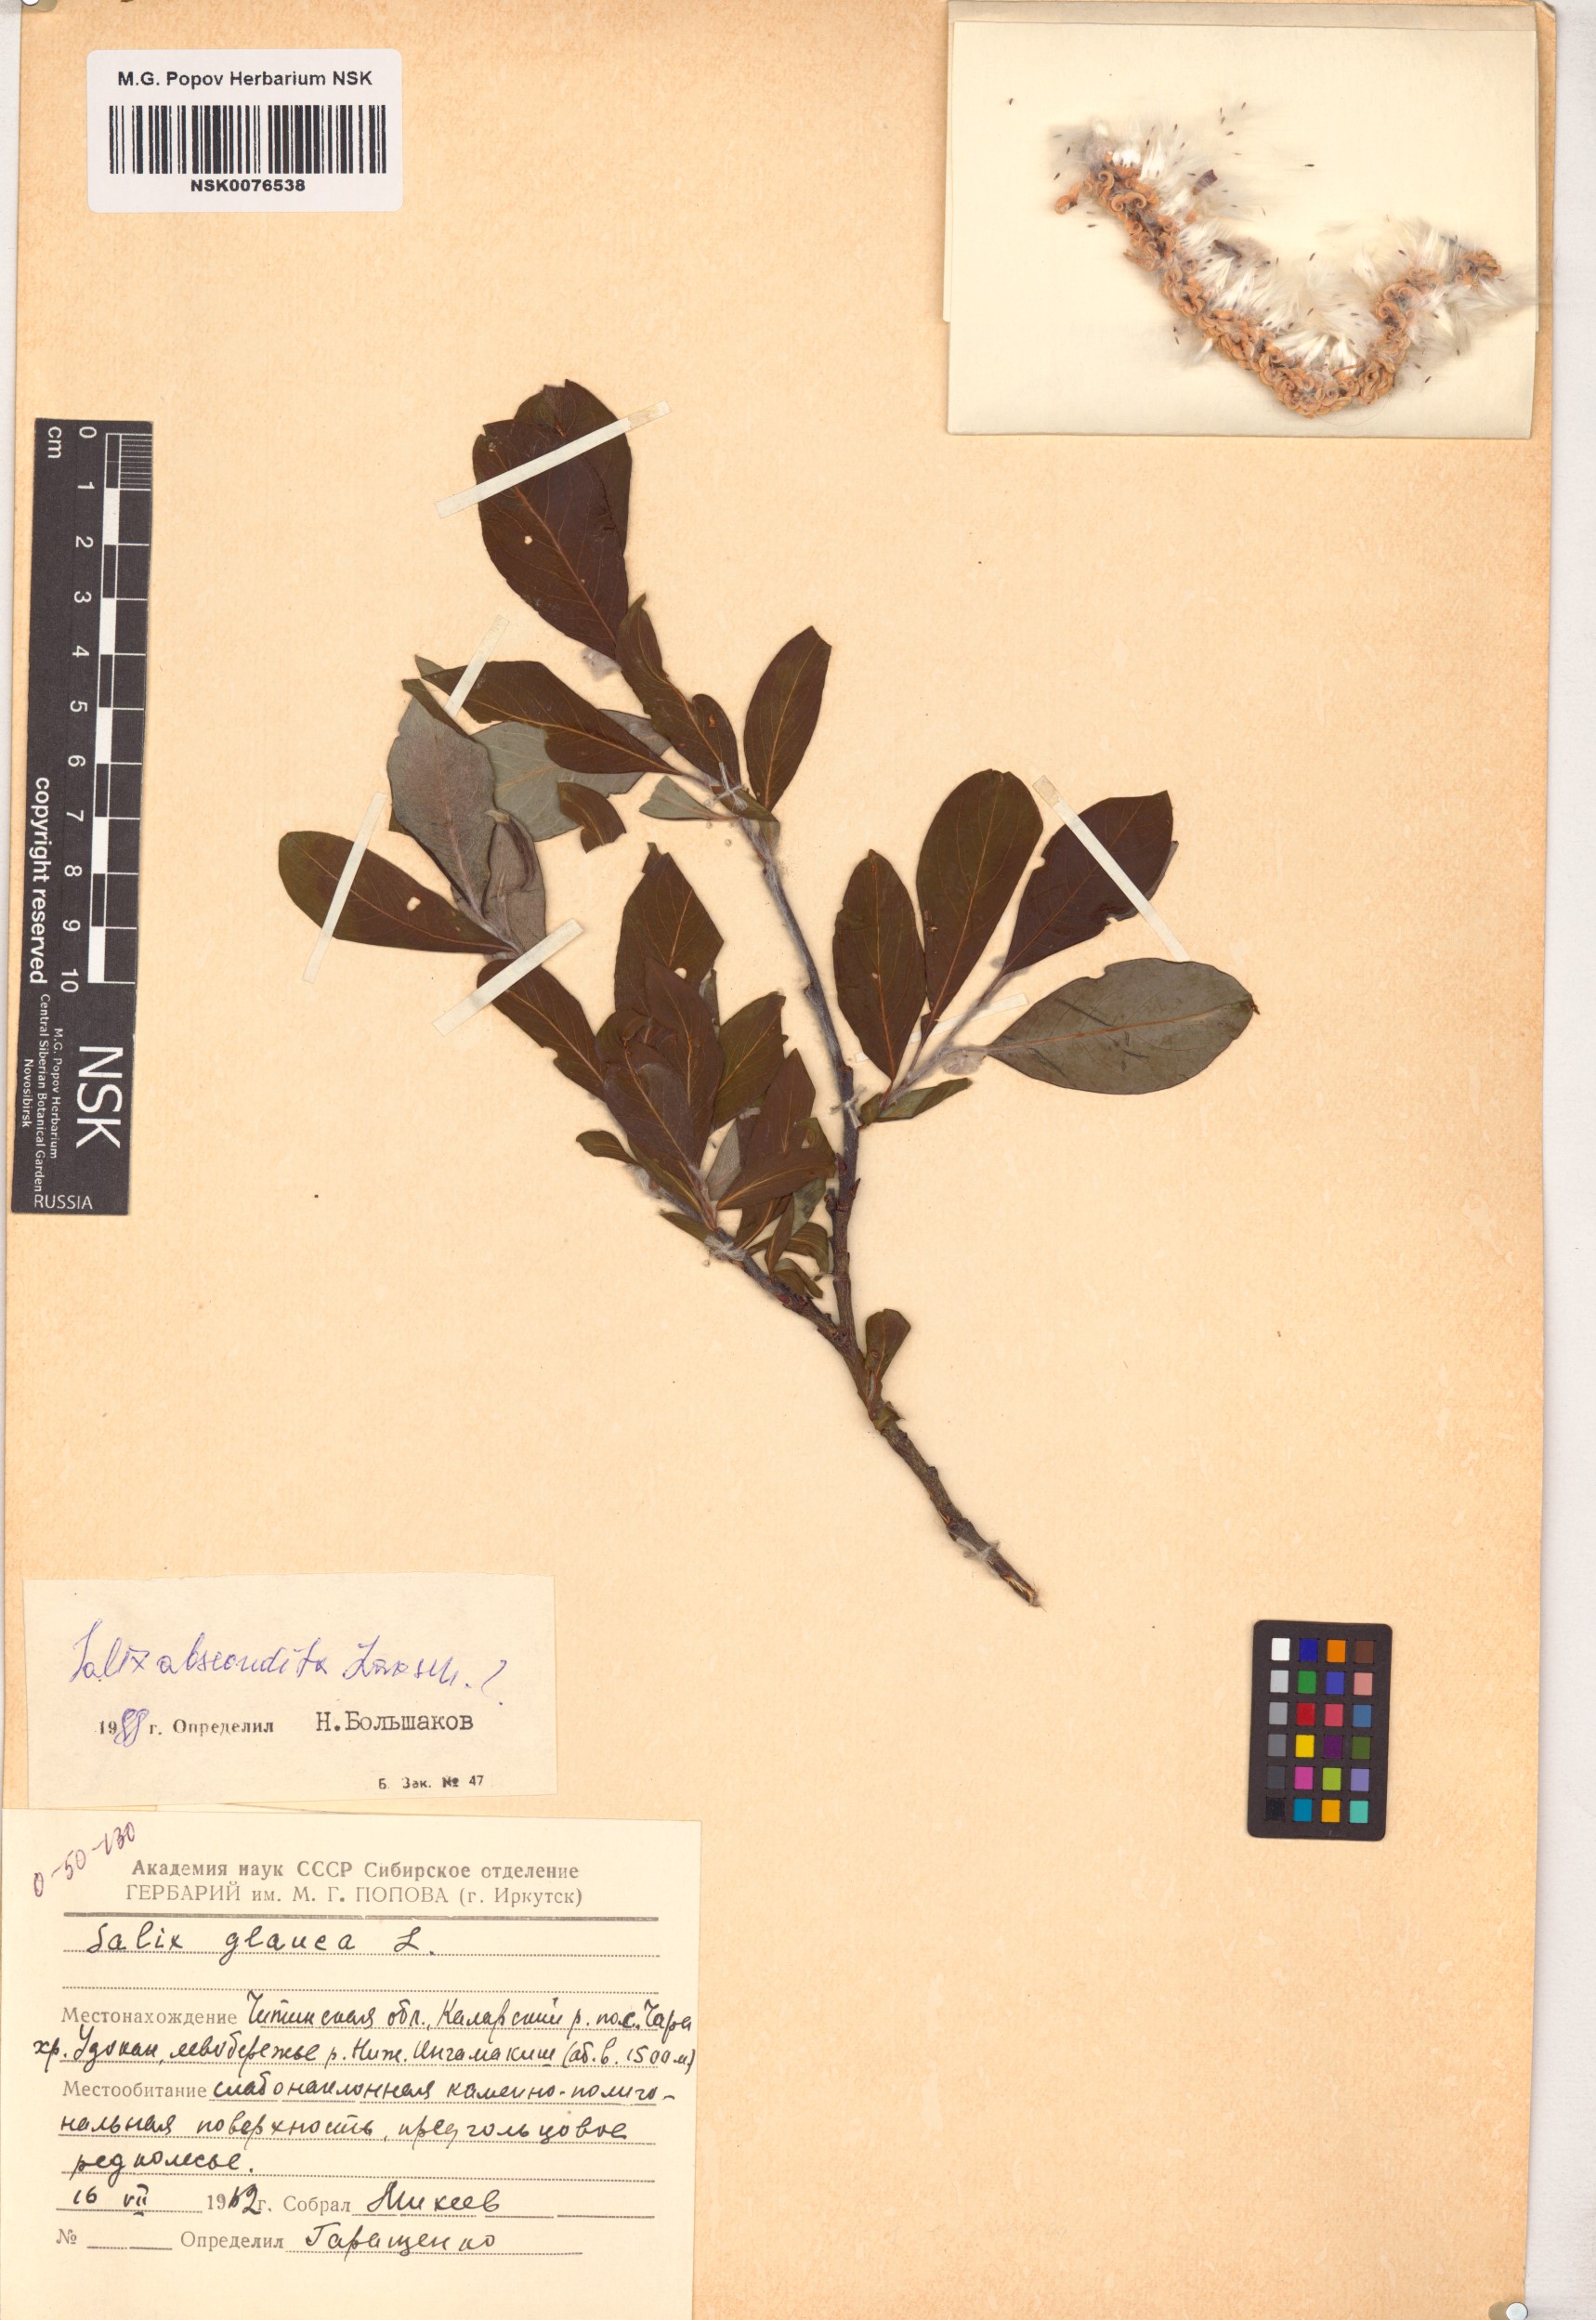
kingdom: Plantae
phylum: Tracheophyta
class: Magnoliopsida
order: Malpighiales
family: Salicaceae
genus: Salix
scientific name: Salix abscondita
